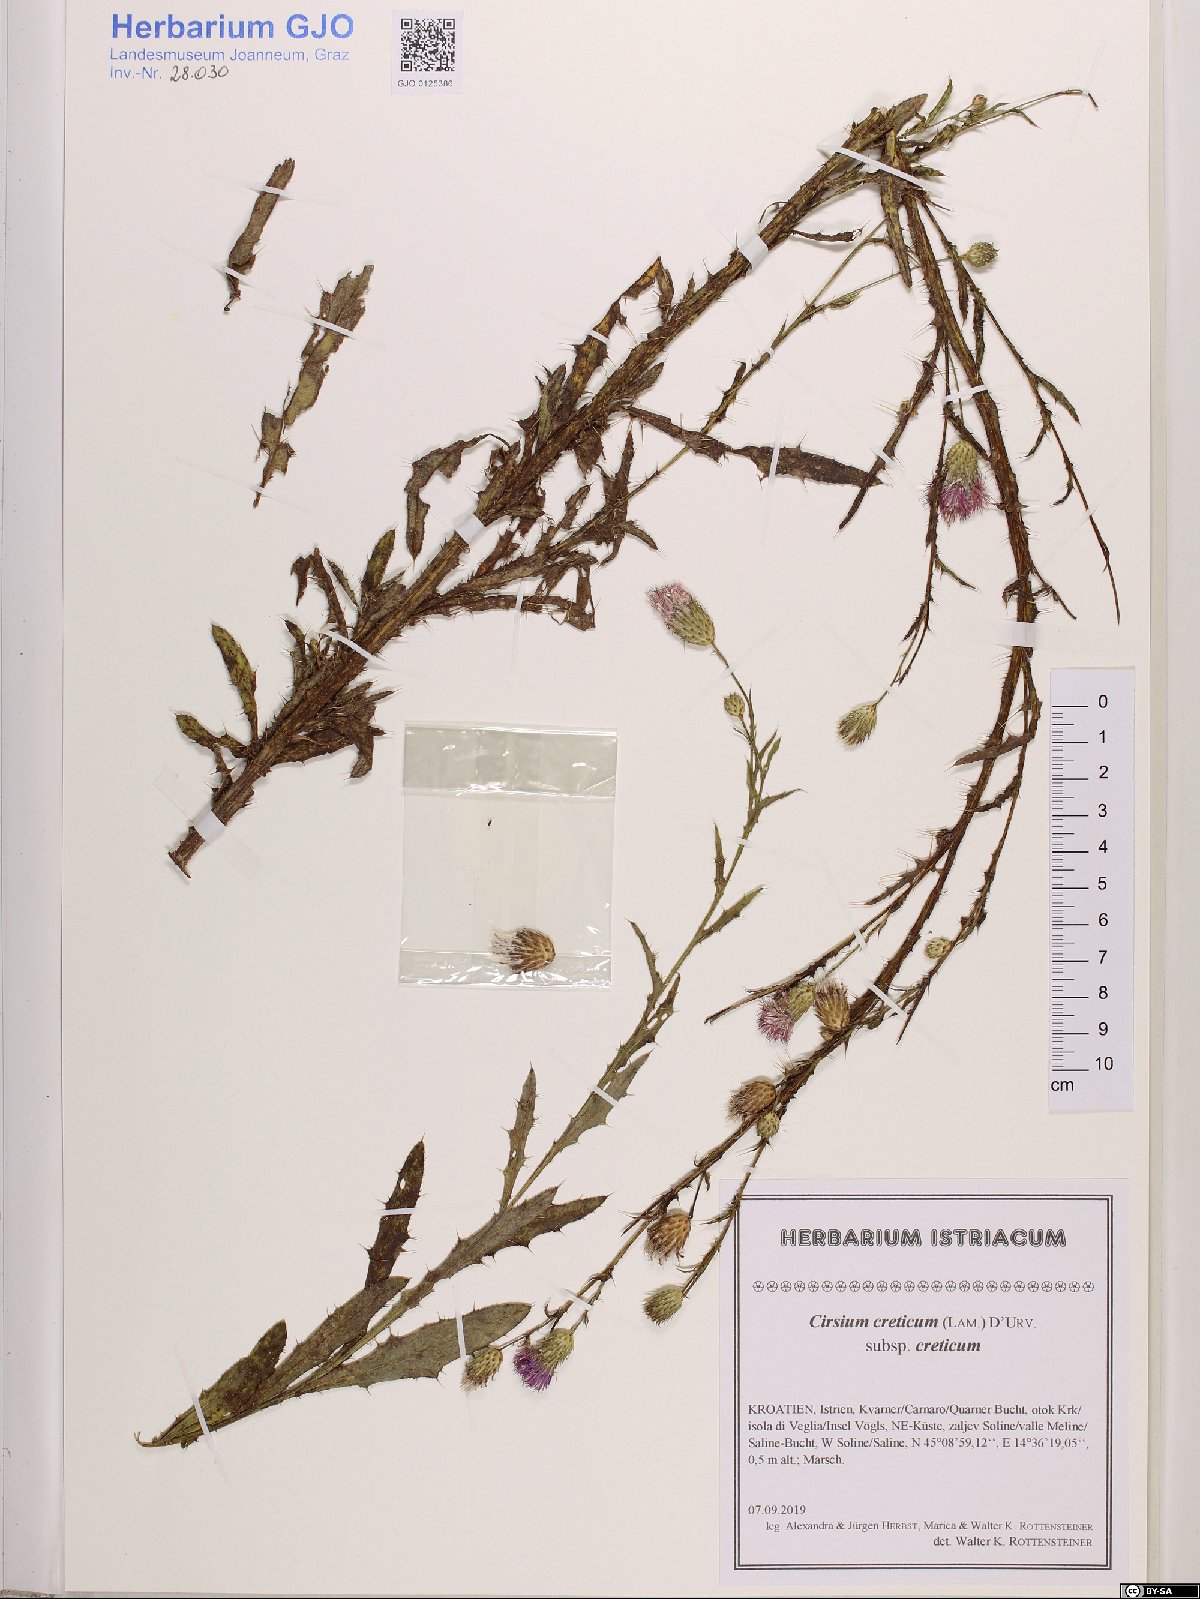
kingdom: Plantae
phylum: Tracheophyta
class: Magnoliopsida
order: Asterales
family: Asteraceae
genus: Cirsium
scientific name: Cirsium creticum
